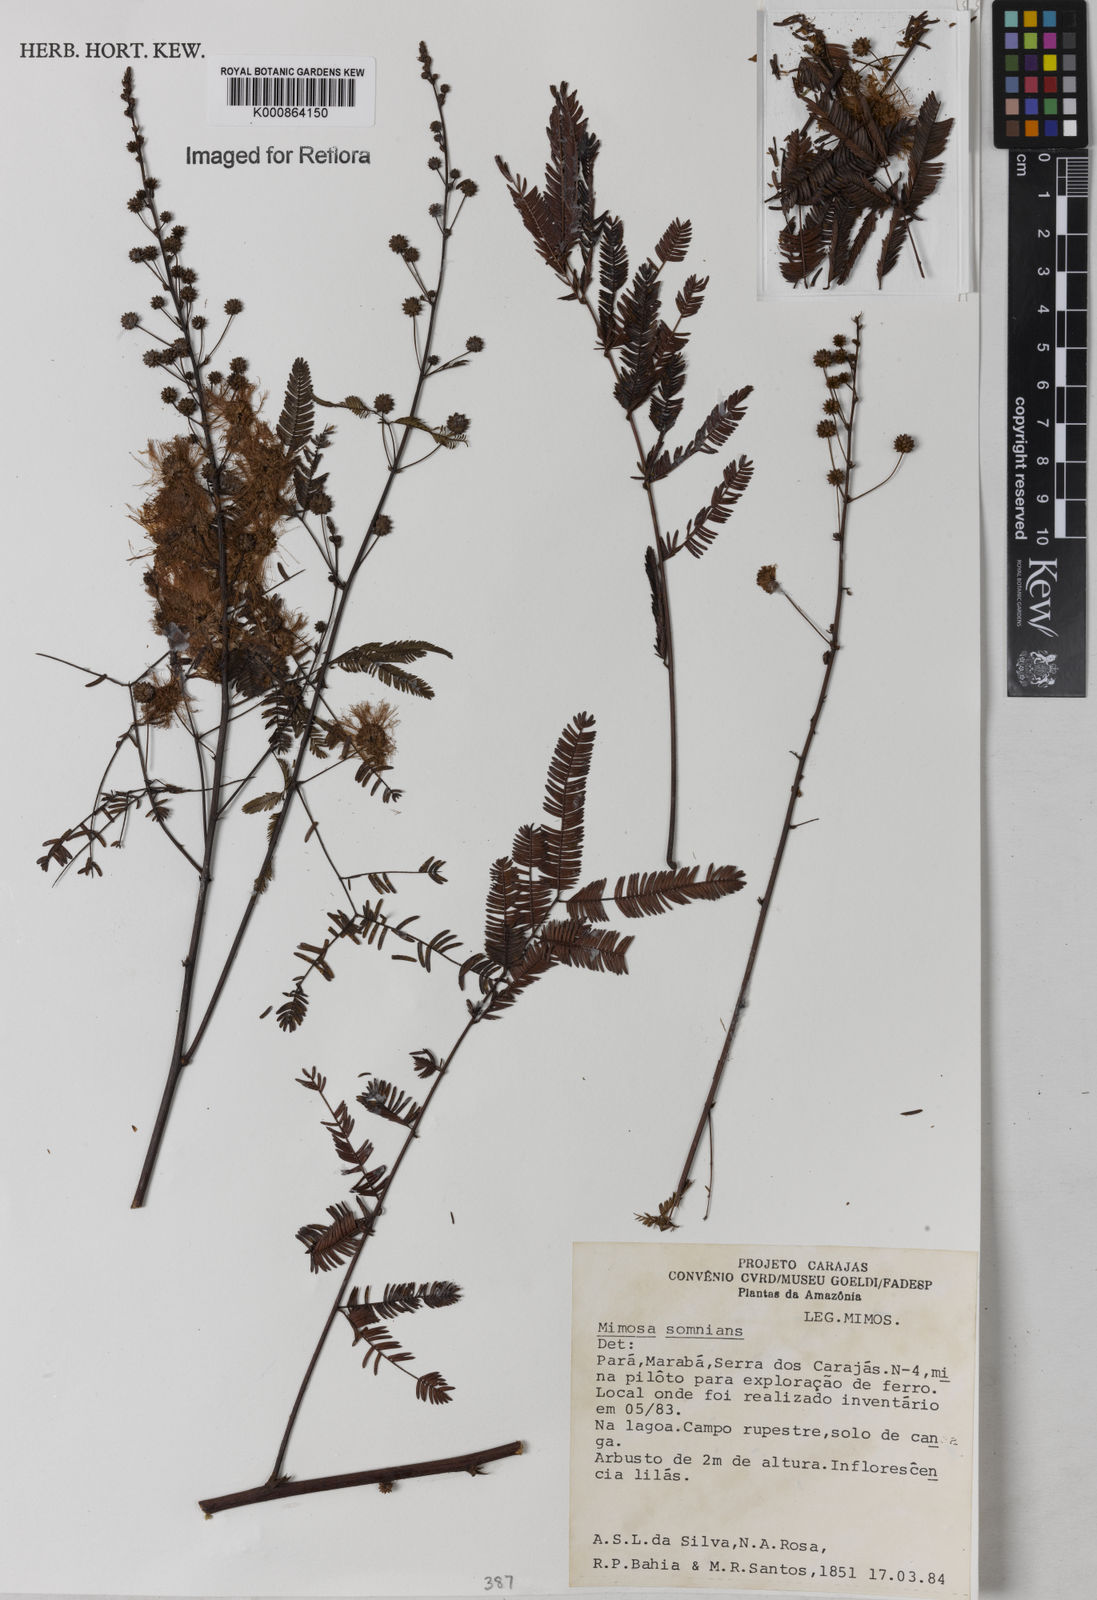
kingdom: Plantae
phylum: Tracheophyta
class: Magnoliopsida
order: Fabales
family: Fabaceae
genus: Mimosa
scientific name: Mimosa somnians
